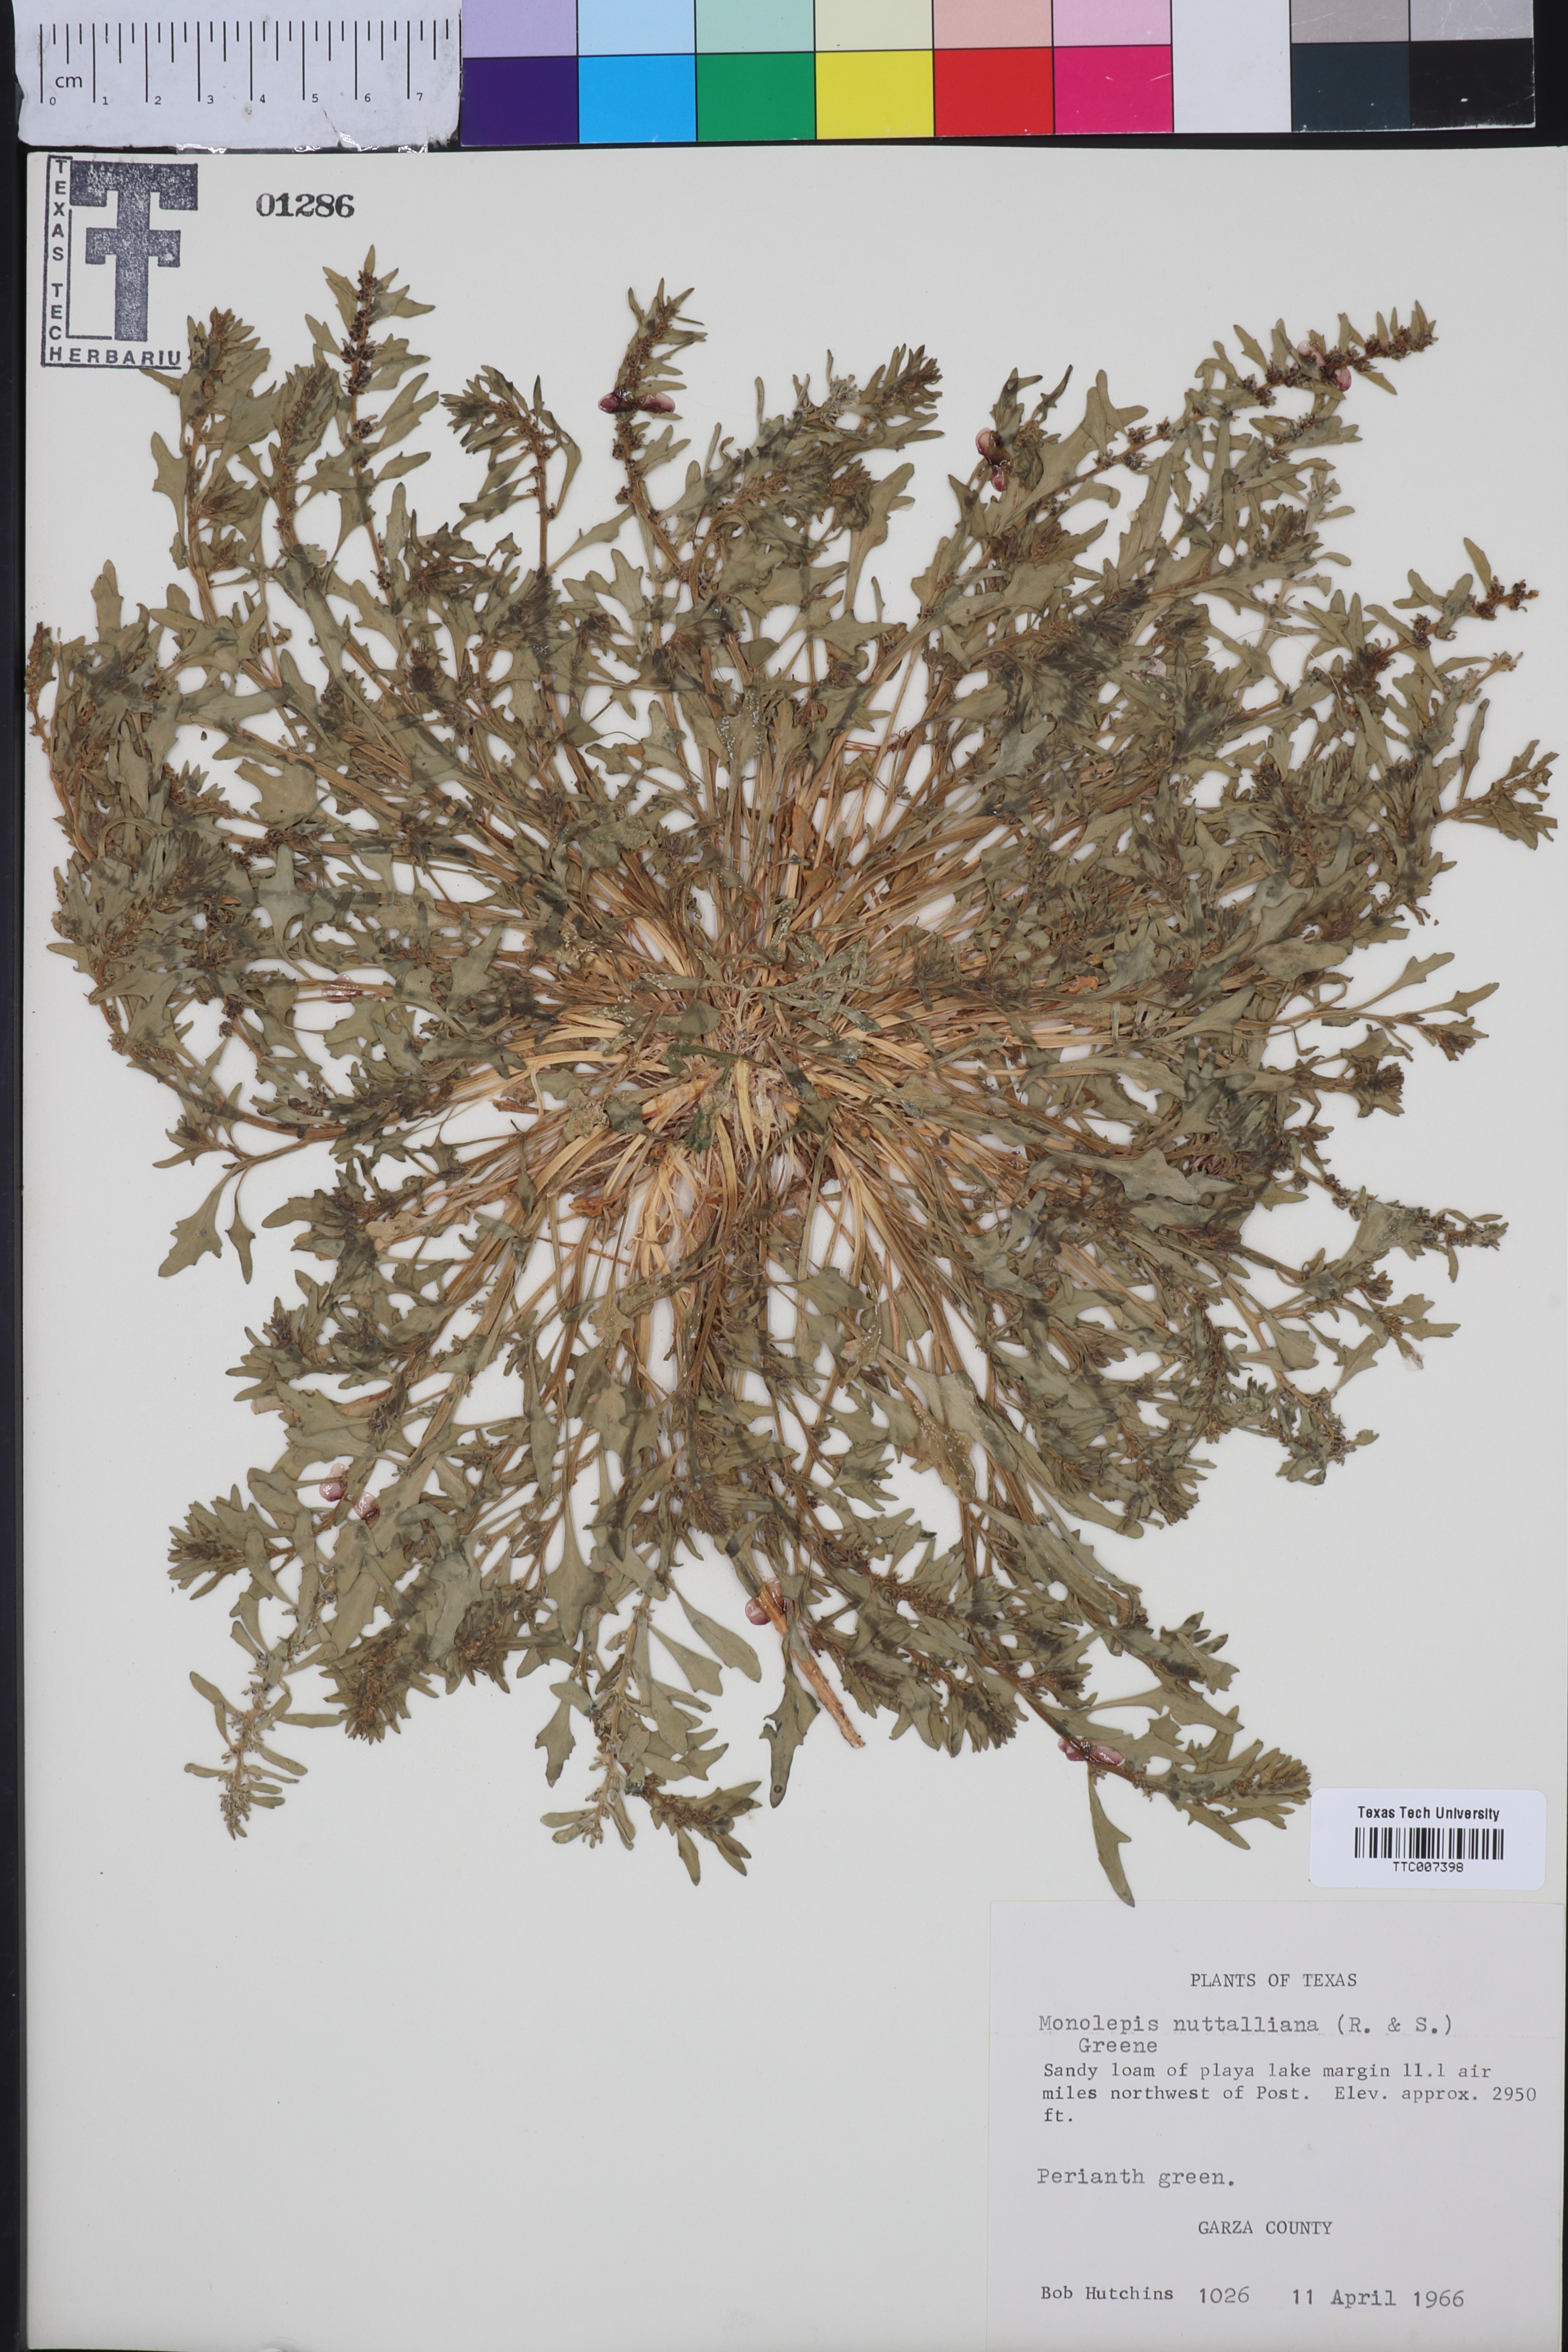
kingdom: Plantae
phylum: Tracheophyta
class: Magnoliopsida
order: Caryophyllales
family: Amaranthaceae
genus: Blitum
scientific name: Blitum nuttallianum
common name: Poverty-weed
